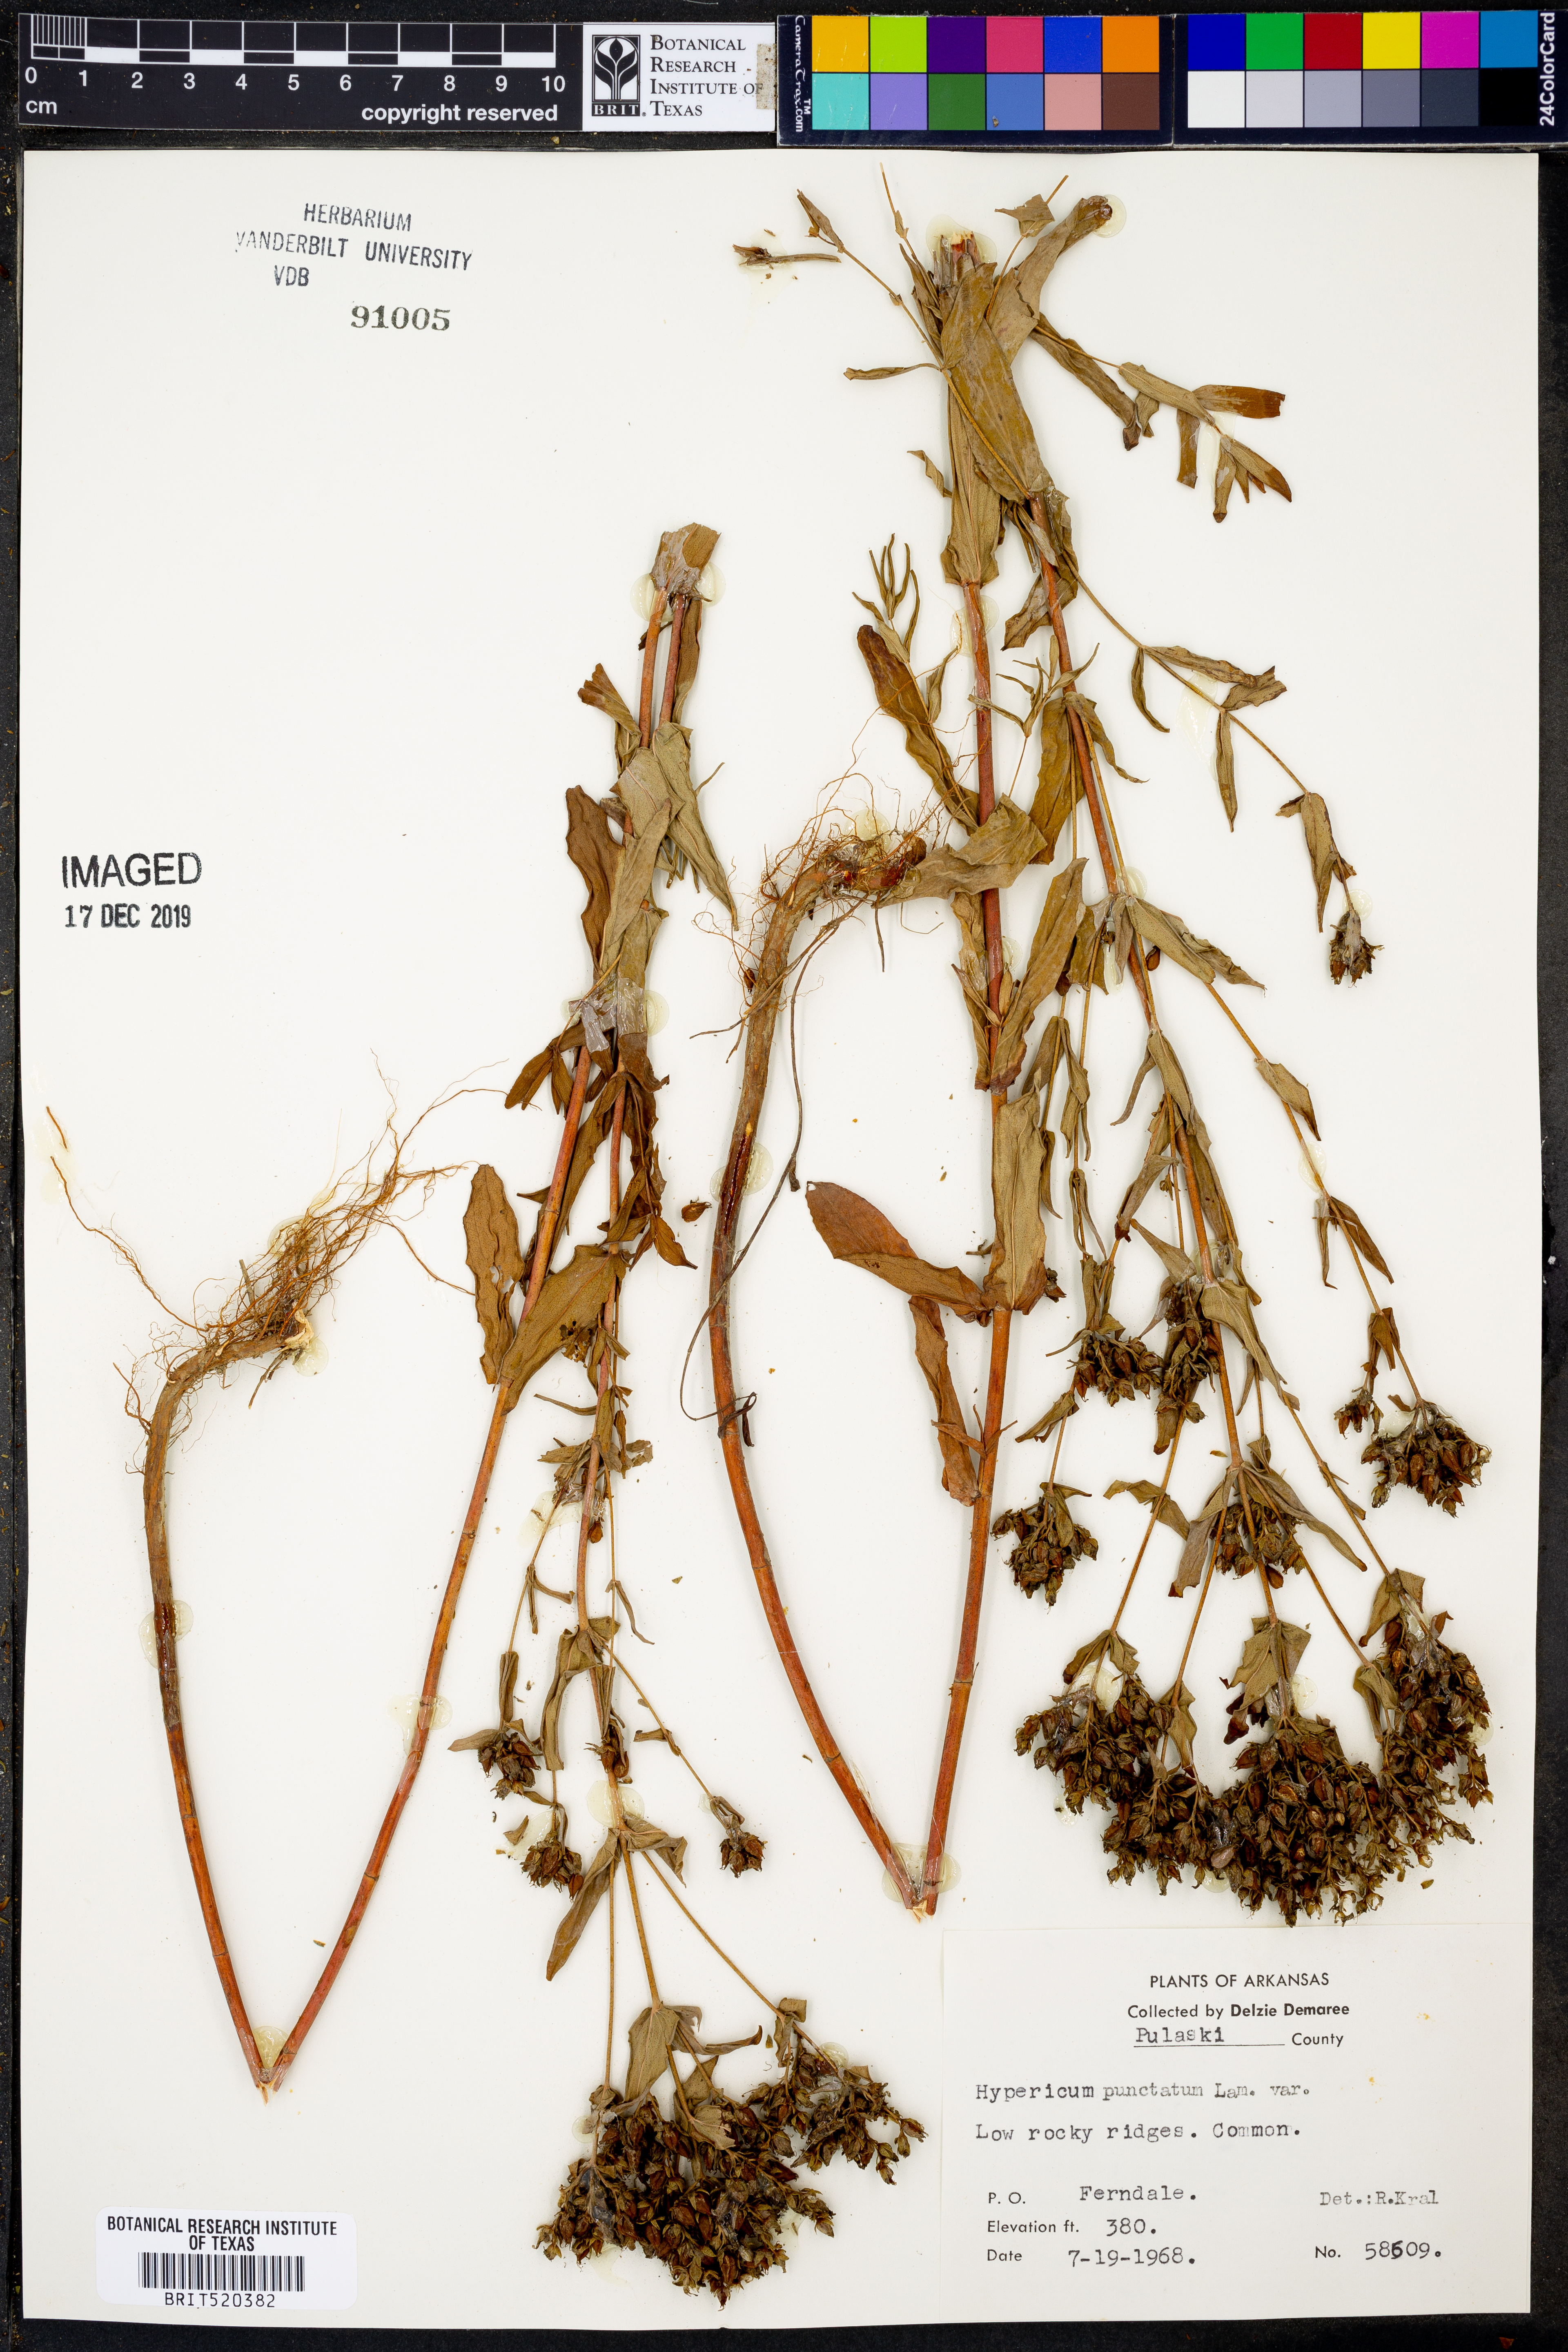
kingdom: Plantae
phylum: Tracheophyta
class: Magnoliopsida
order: Malpighiales
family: Hypericaceae
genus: Hypericum
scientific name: Hypericum punctatum
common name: Spotted st. john's-wort
